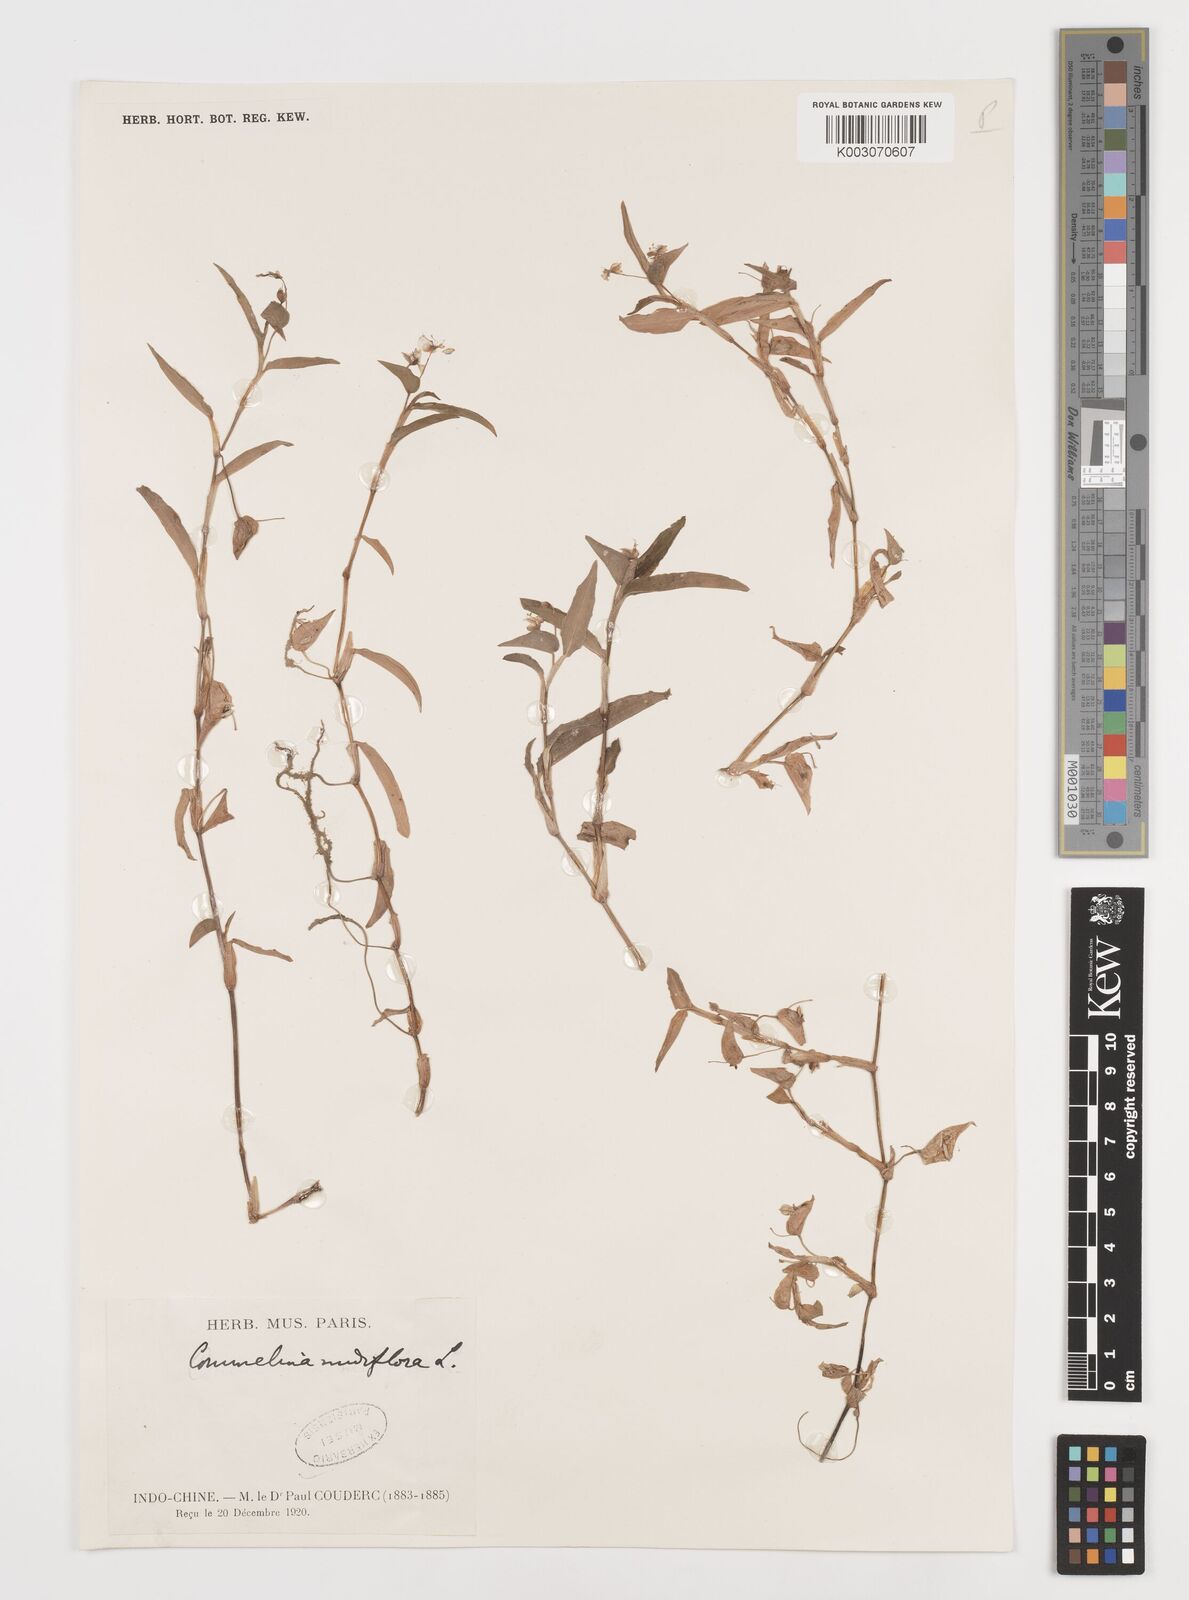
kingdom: Plantae
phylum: Tracheophyta
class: Liliopsida
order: Commelinales
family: Commelinaceae
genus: Commelina
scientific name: Commelina clavata
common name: Willow leaved dayflower
